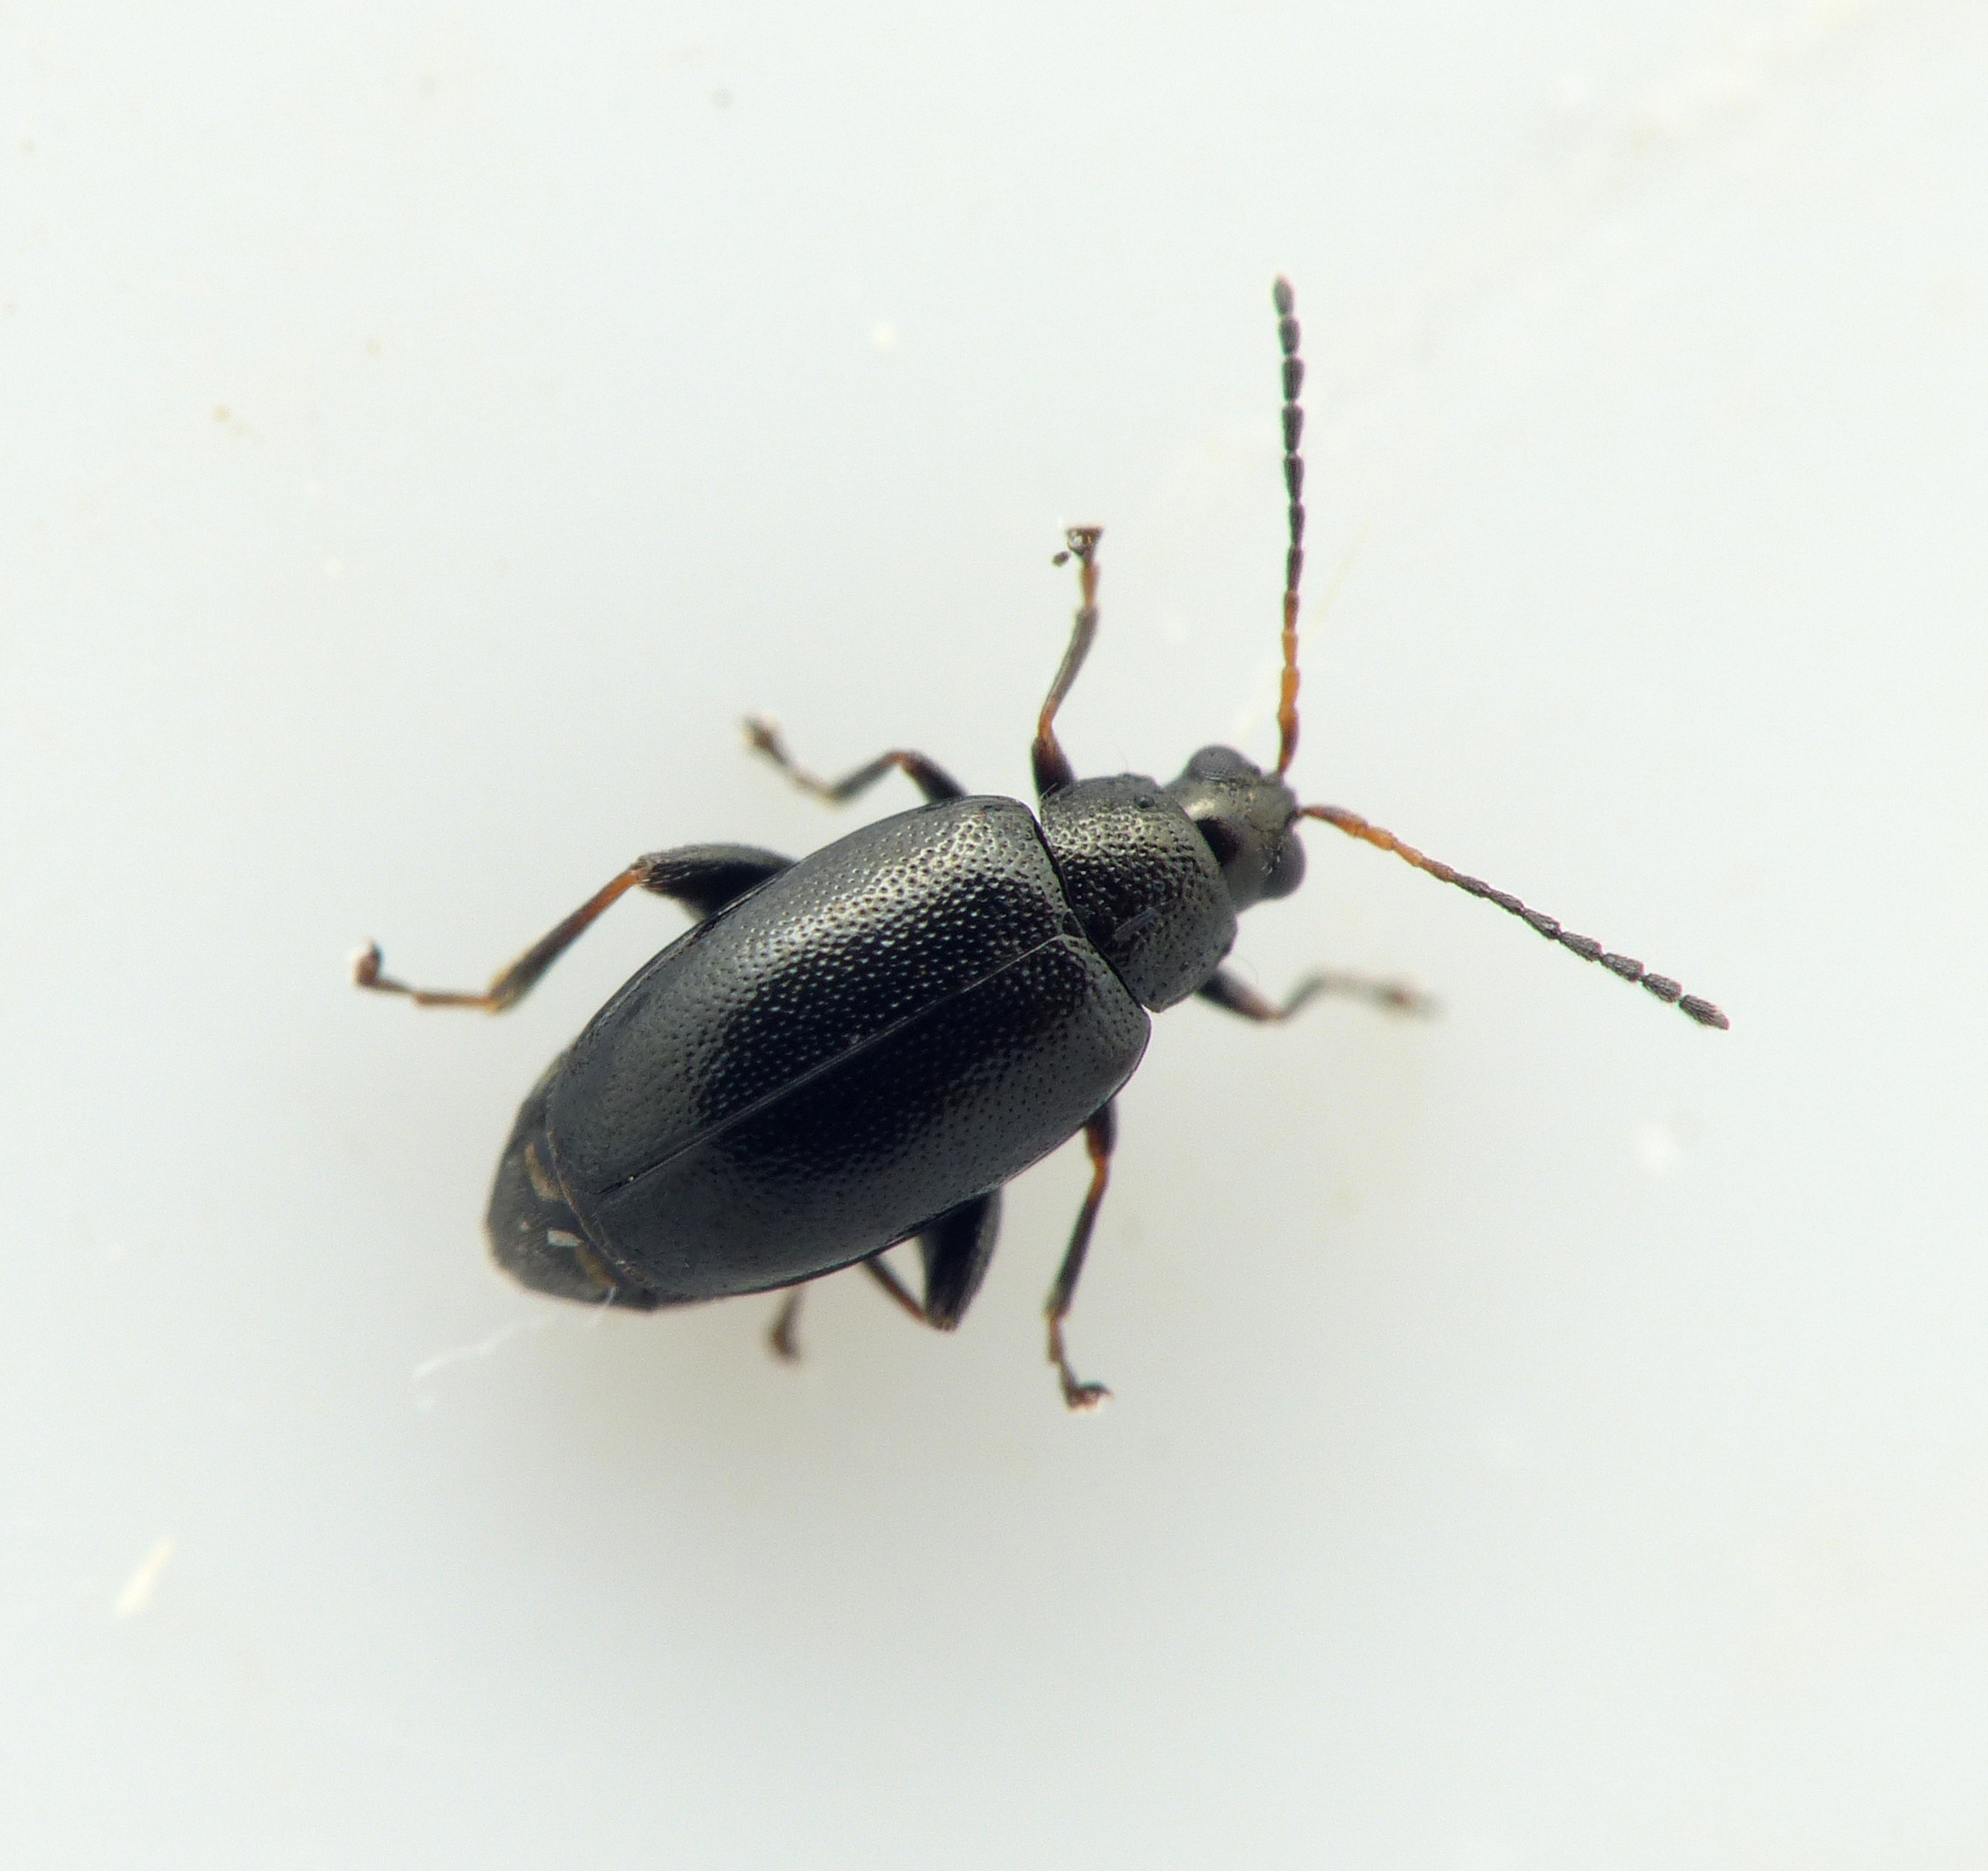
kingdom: Animalia
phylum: Arthropoda
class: Insecta
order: Coleoptera
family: Chrysomelidae
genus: Phyllotreta
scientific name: Phyllotreta astrachanica
